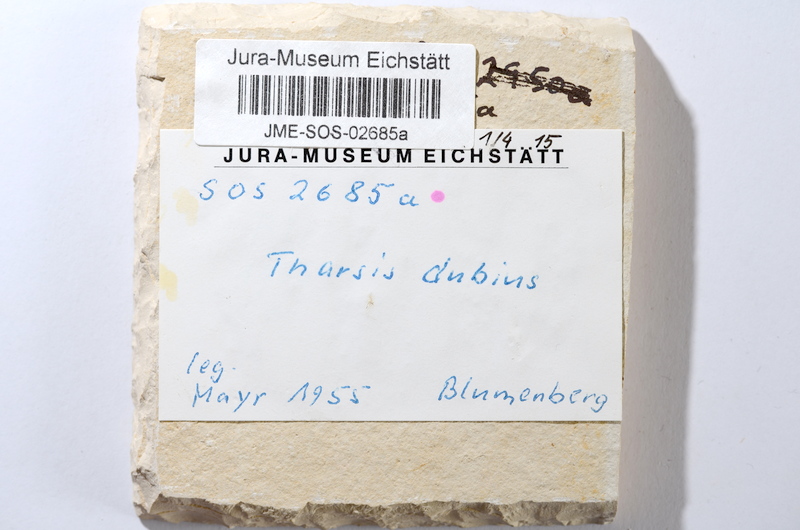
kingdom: Animalia
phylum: Chordata
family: Ascalaboidae
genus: Tharsis
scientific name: Tharsis dubius
